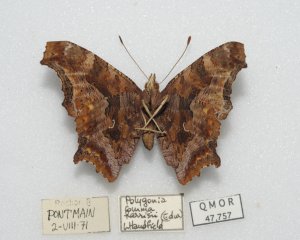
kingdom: Animalia
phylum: Arthropoda
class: Insecta
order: Lepidoptera
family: Nymphalidae
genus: Polygonia
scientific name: Polygonia comma
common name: Eastern Comma
